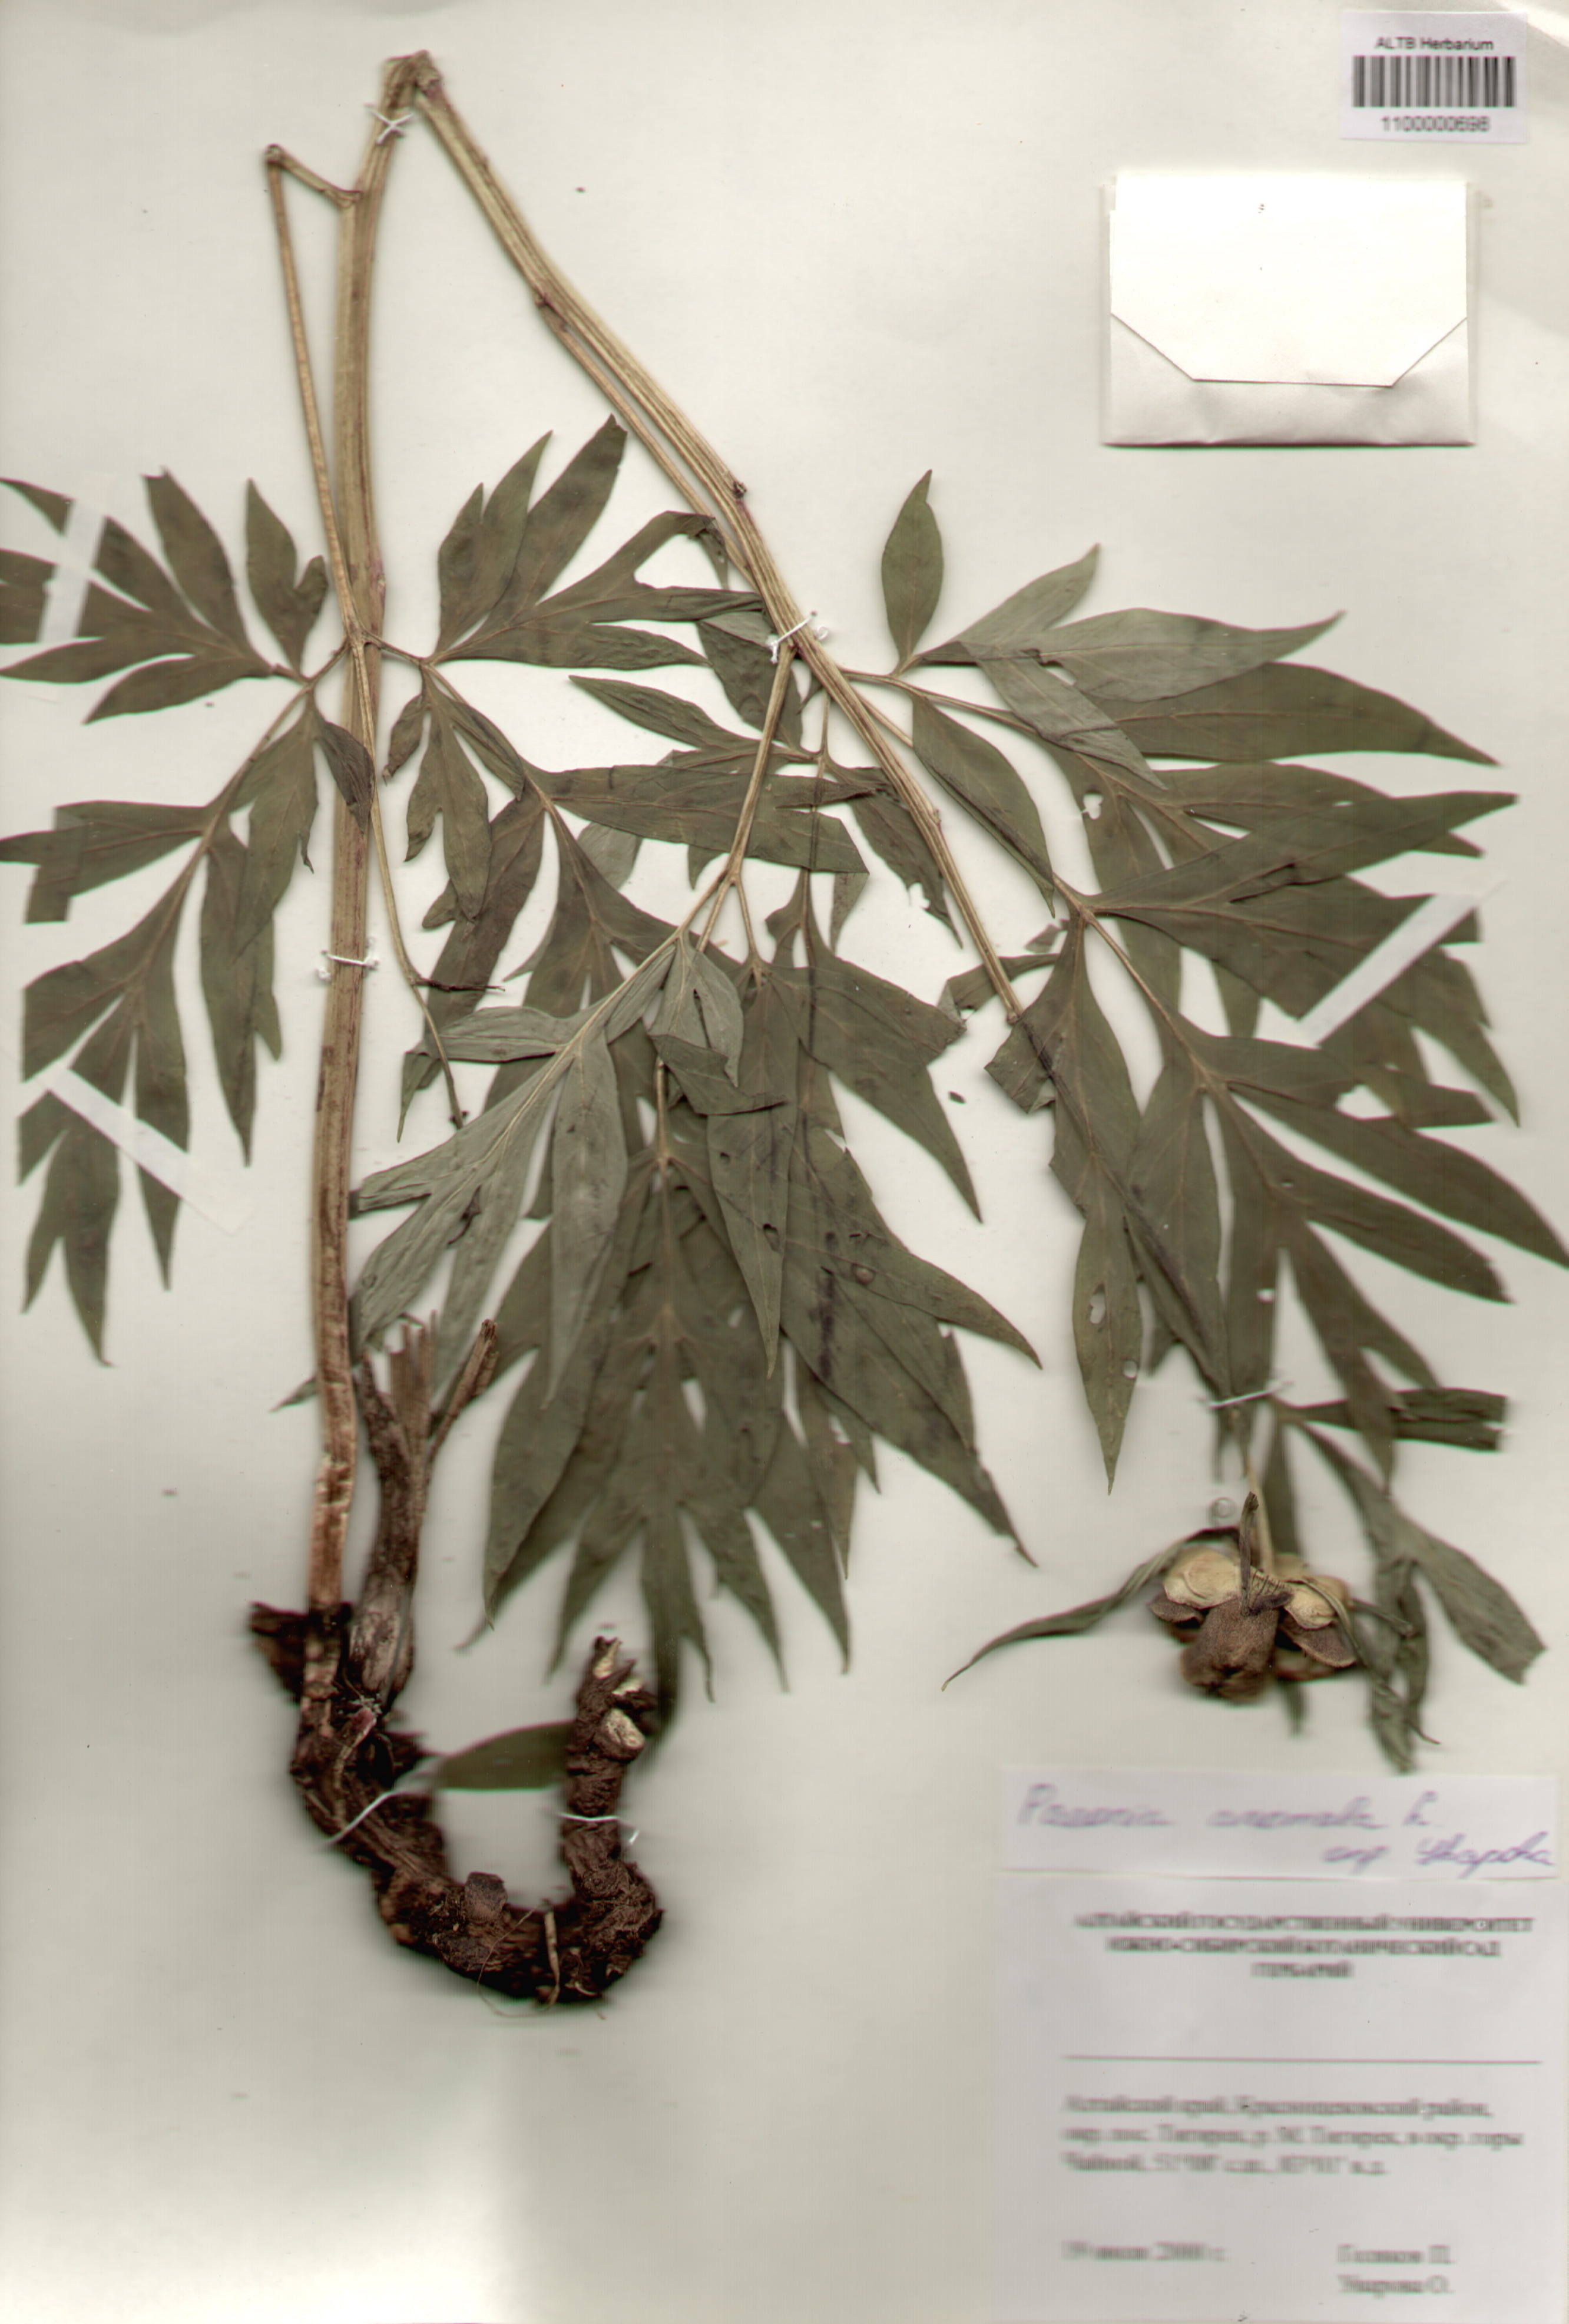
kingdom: Plantae
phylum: Tracheophyta
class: Magnoliopsida
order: Saxifragales
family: Paeoniaceae
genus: Paeonia
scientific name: Paeonia anomala
